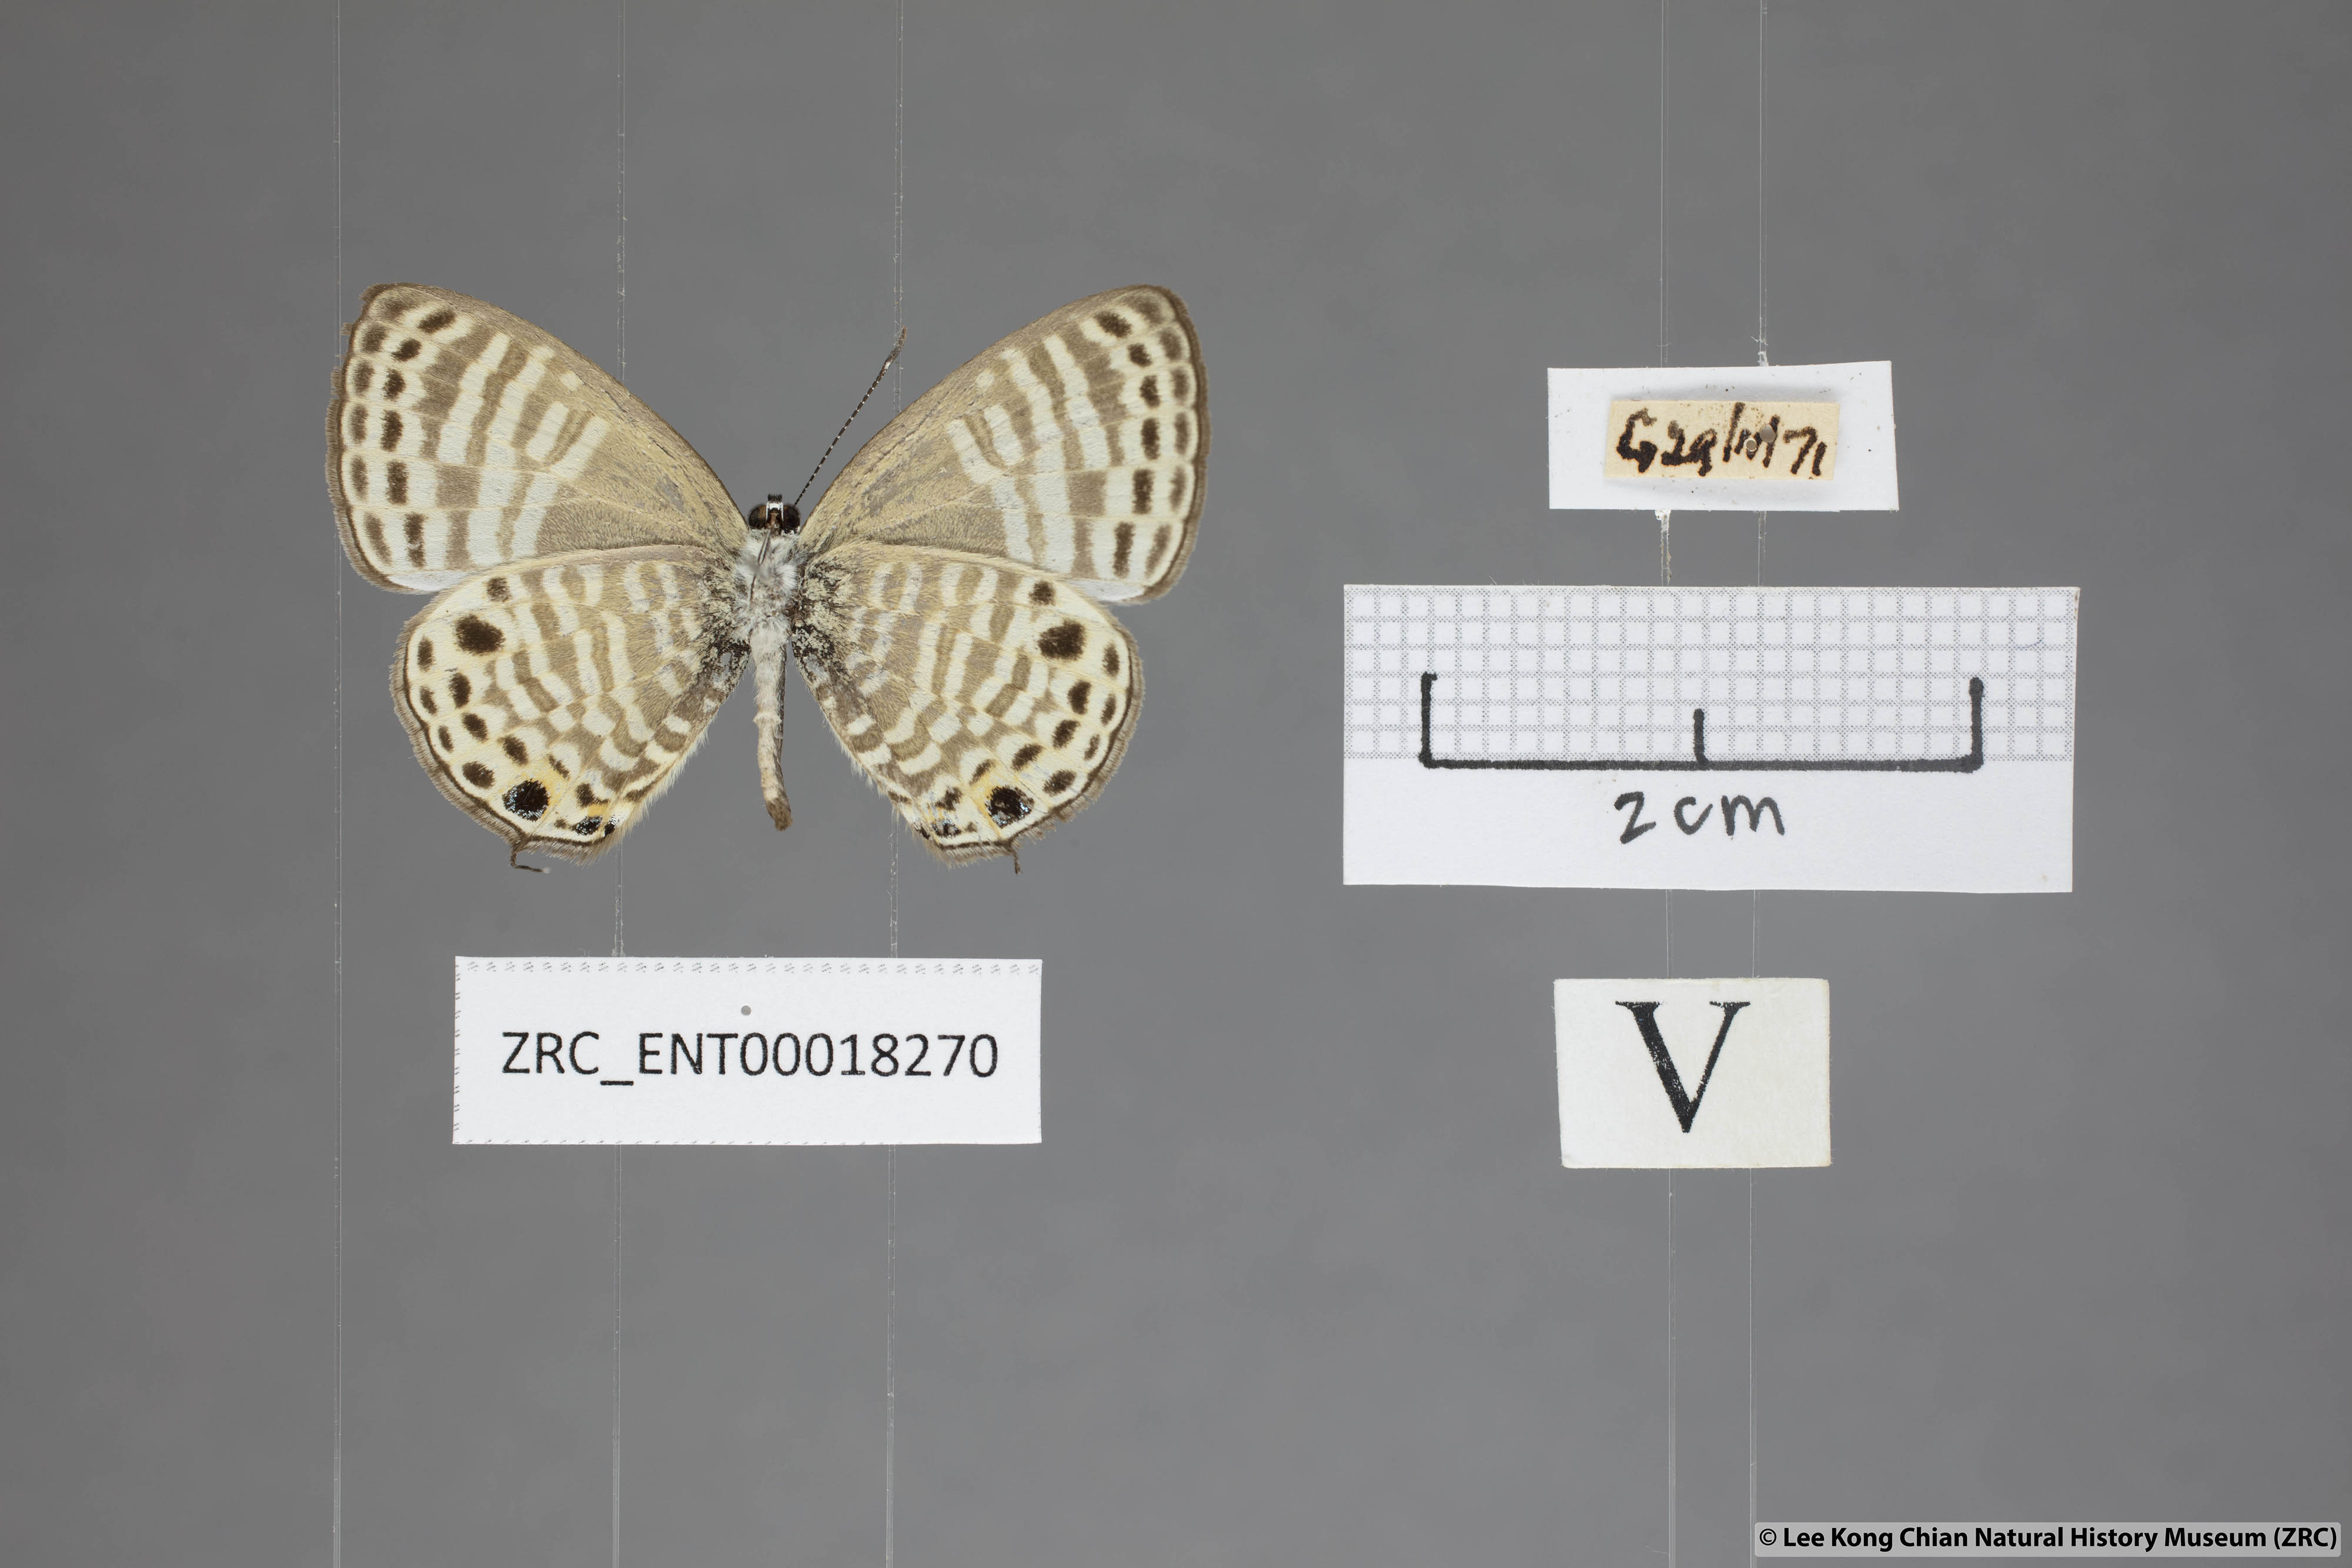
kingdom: Animalia
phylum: Arthropoda
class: Insecta
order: Lepidoptera
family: Lycaenidae
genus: Nacaduba
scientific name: Nacaduba angusta
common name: White four-line blue
